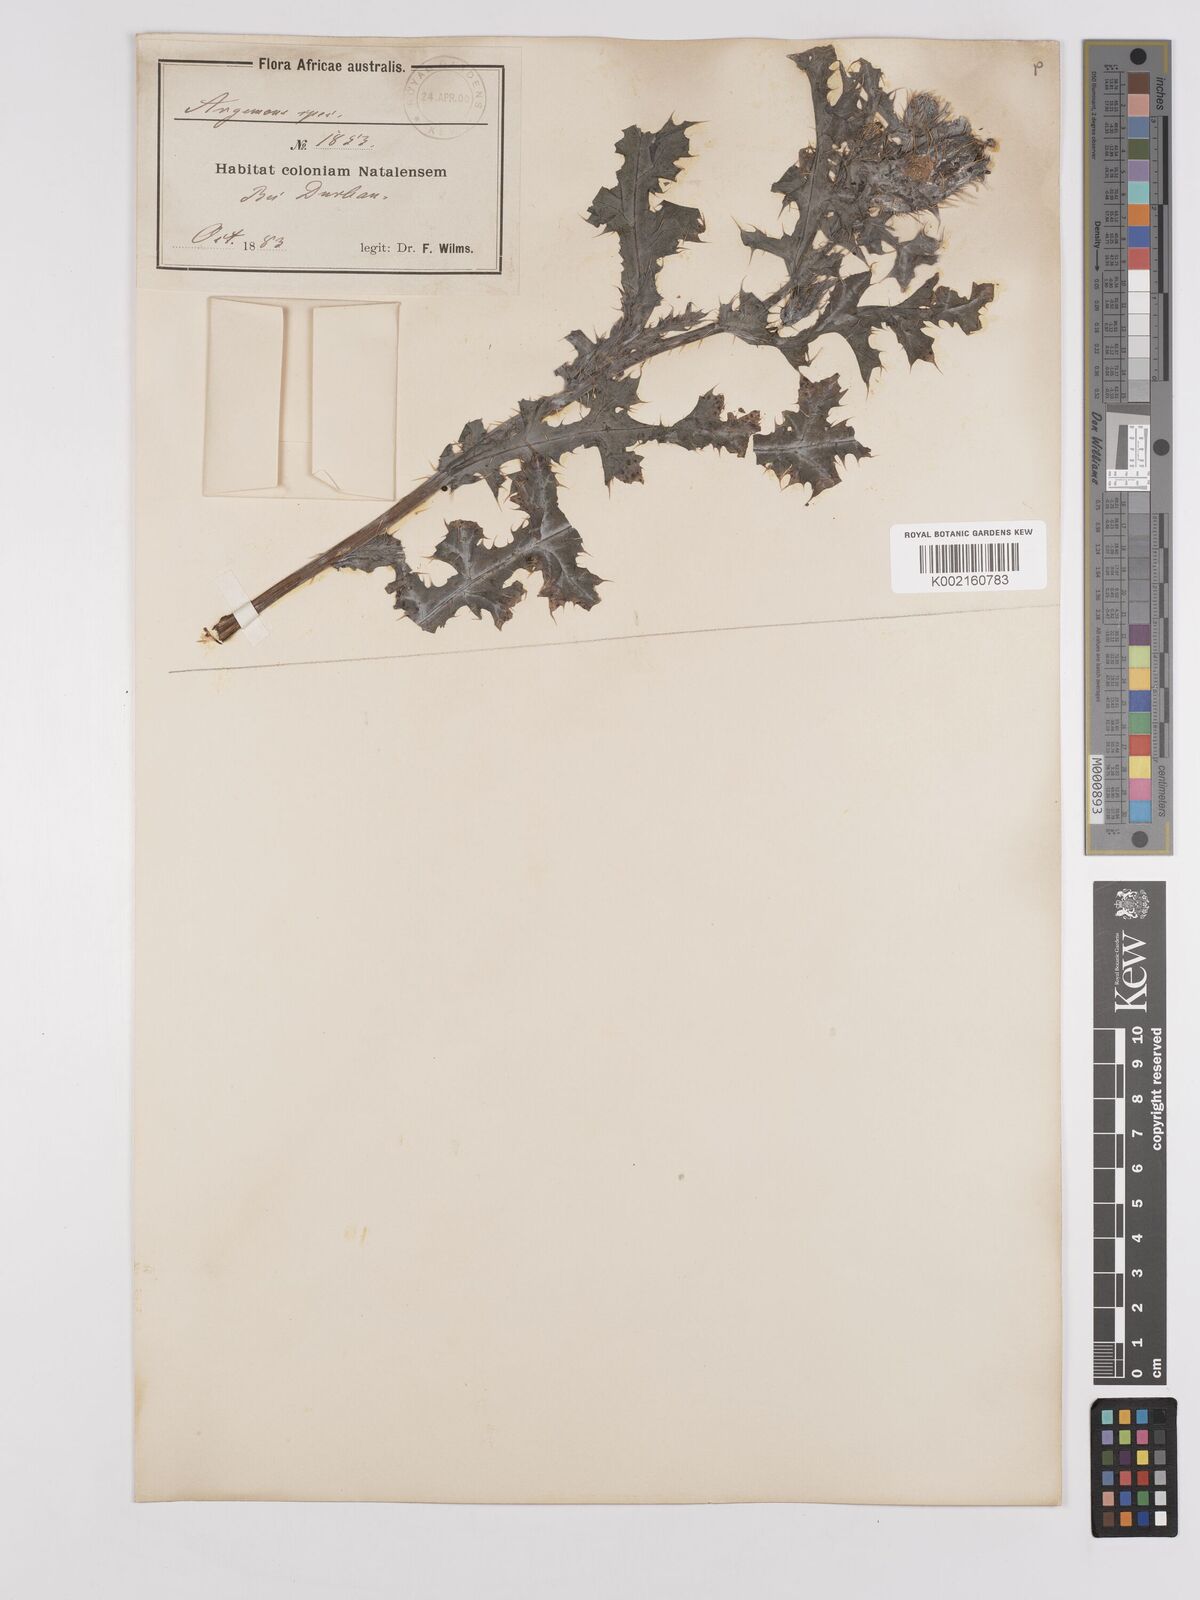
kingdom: Plantae
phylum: Tracheophyta
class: Magnoliopsida
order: Ranunculales
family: Papaveraceae
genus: Argemone
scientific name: Argemone ochroleuca
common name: White-flower mexican-poppy
